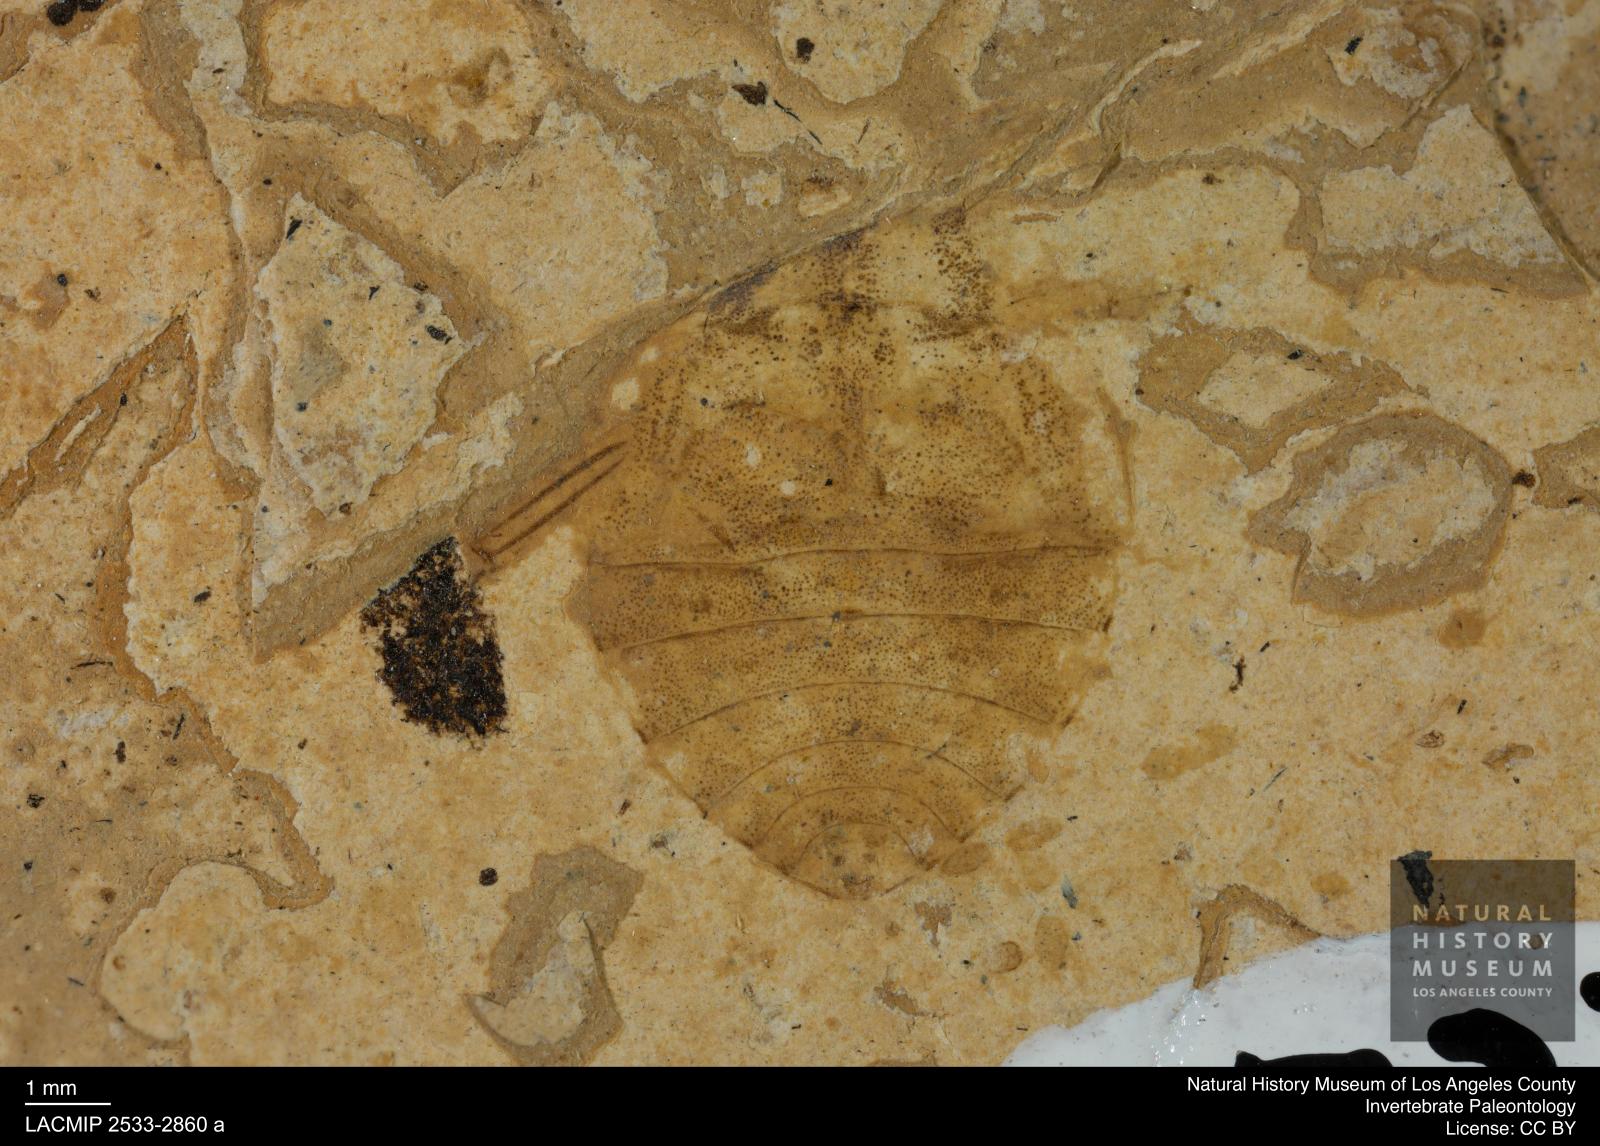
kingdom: Animalia
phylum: Arthropoda
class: Insecta
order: Hemiptera
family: Naucoridae
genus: Naucoris
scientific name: Naucoris rottensis
